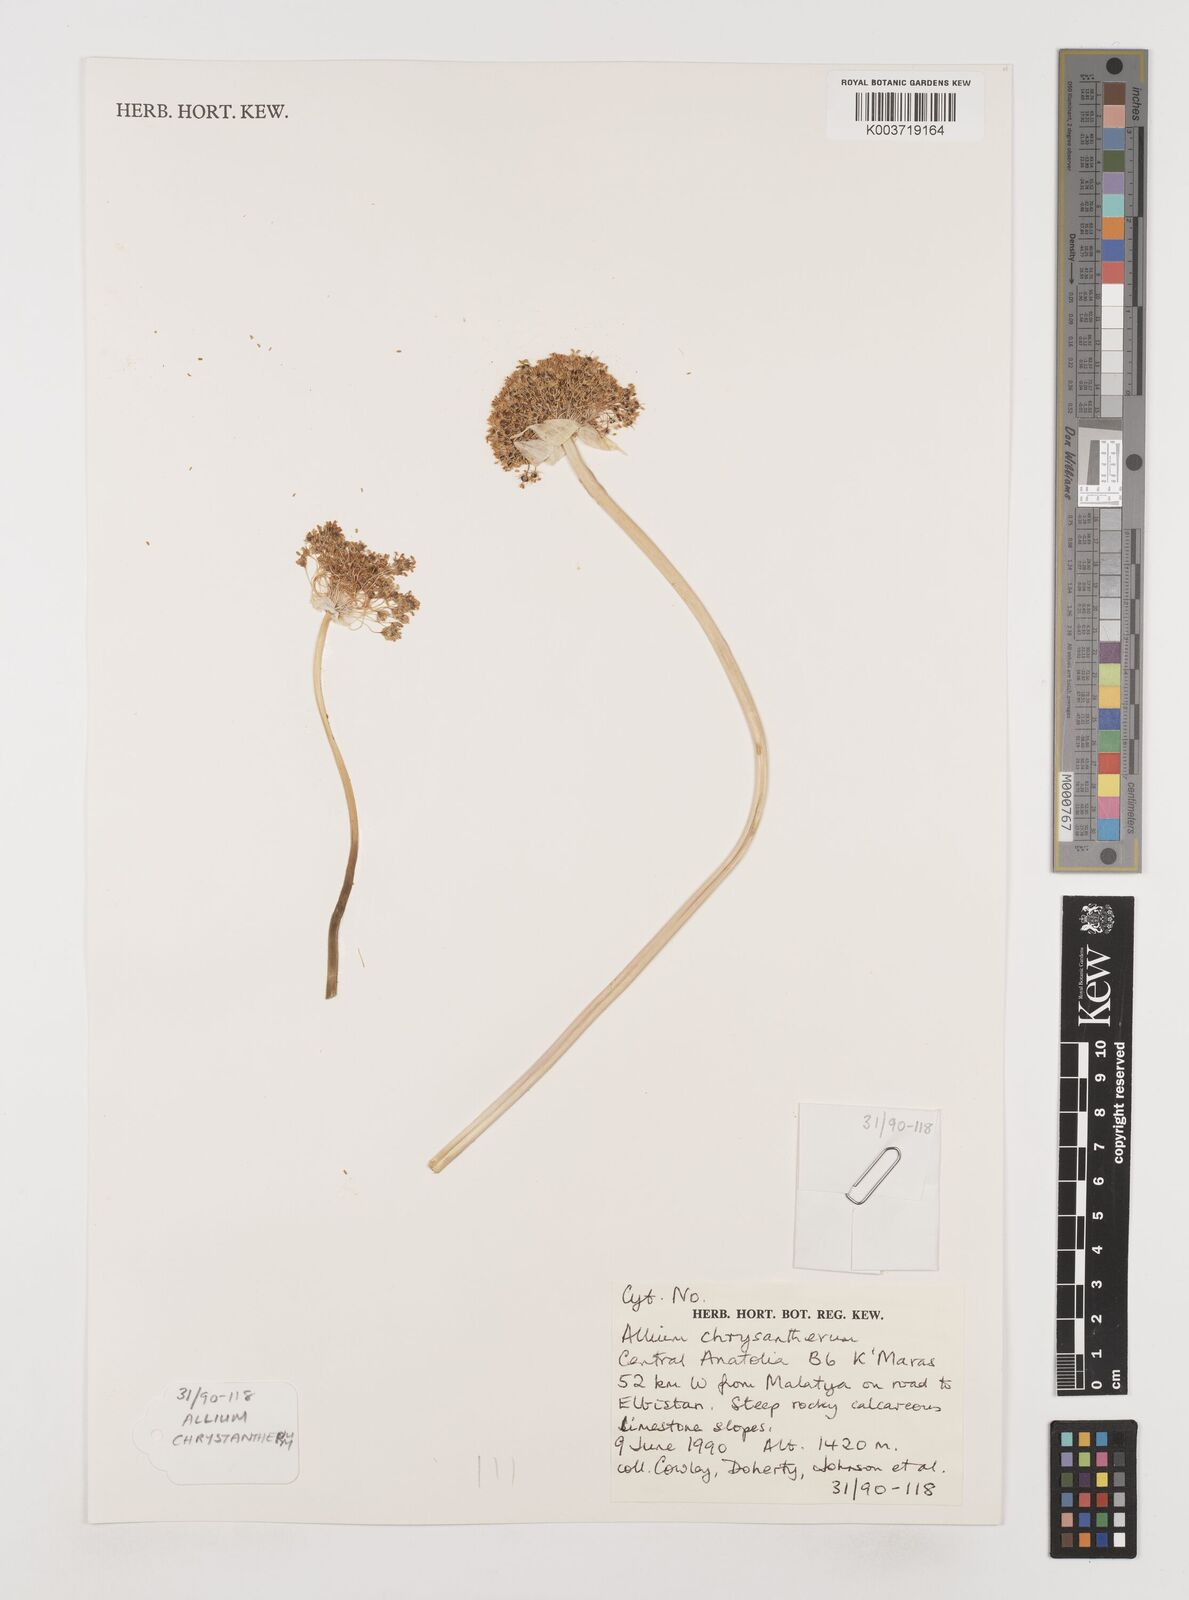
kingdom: Plantae
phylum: Tracheophyta
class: Liliopsida
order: Asparagales
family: Amaryllidaceae
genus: Allium
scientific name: Allium chrysantherum
